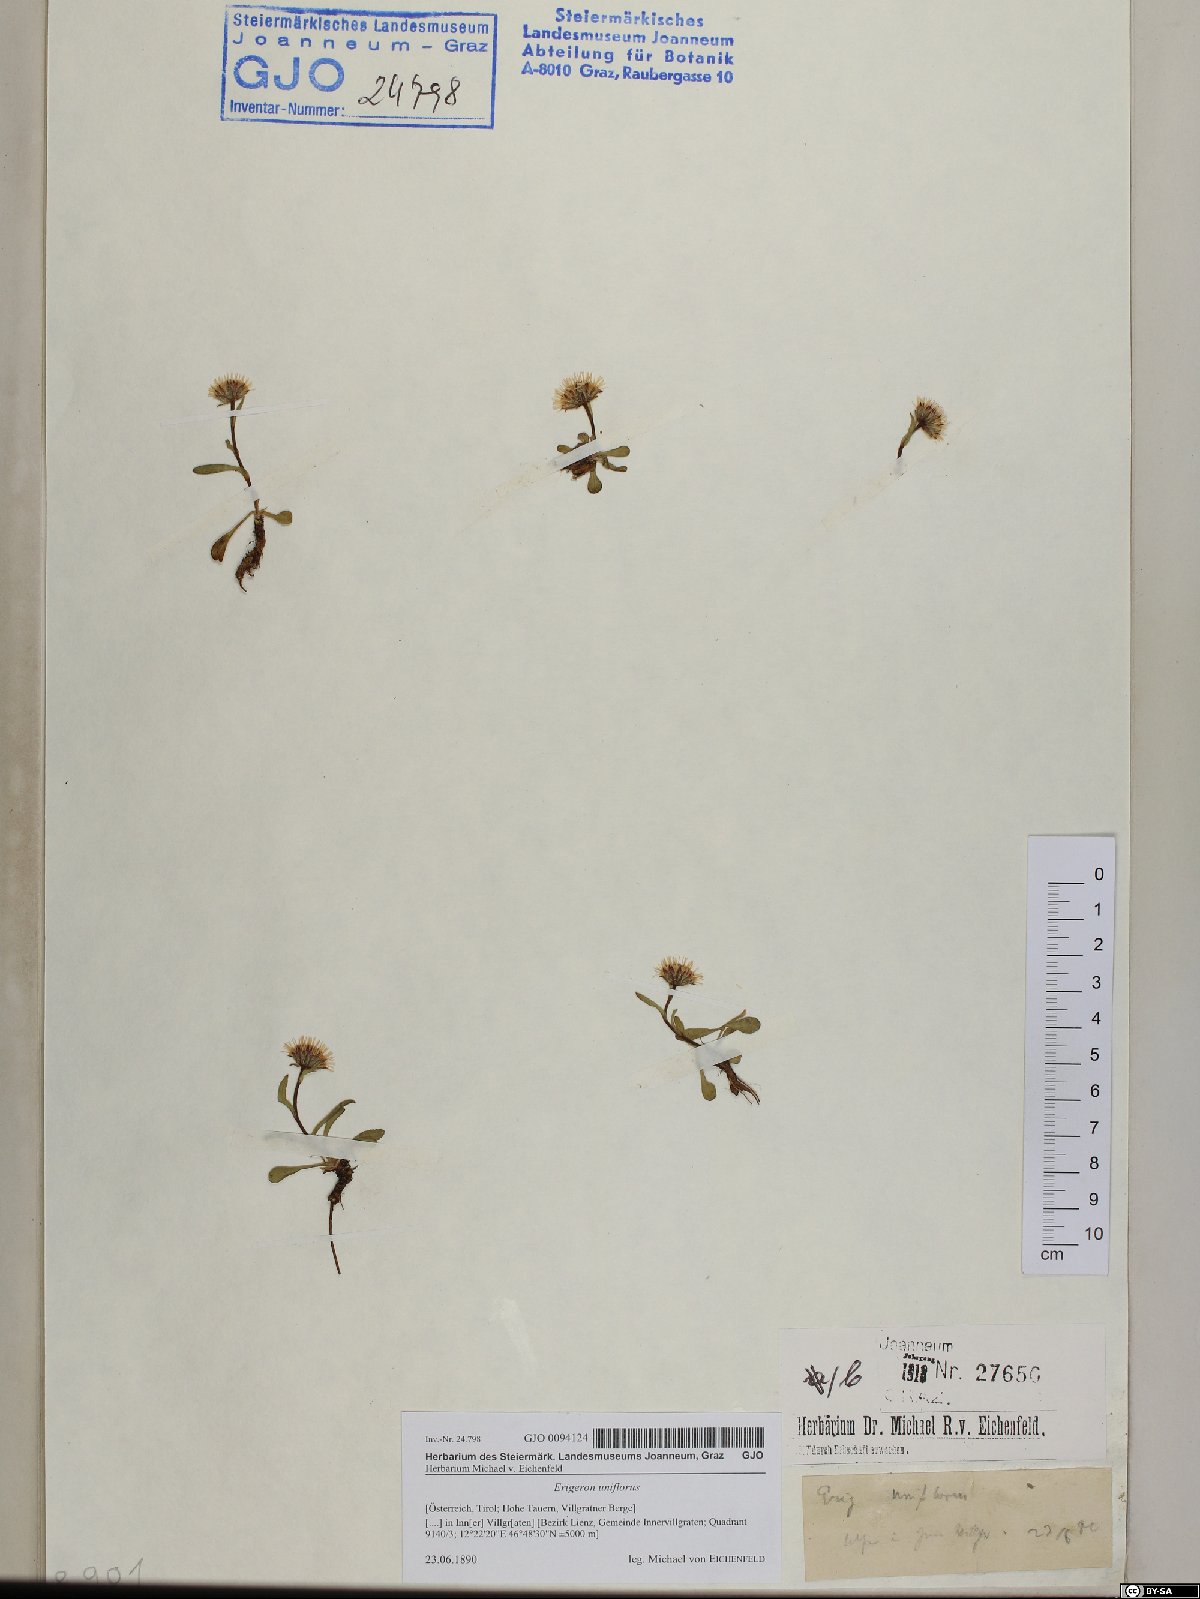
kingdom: Plantae
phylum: Tracheophyta
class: Magnoliopsida
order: Asterales
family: Asteraceae
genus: Erigeron
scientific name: Erigeron uniflorus
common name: Northern daisy
